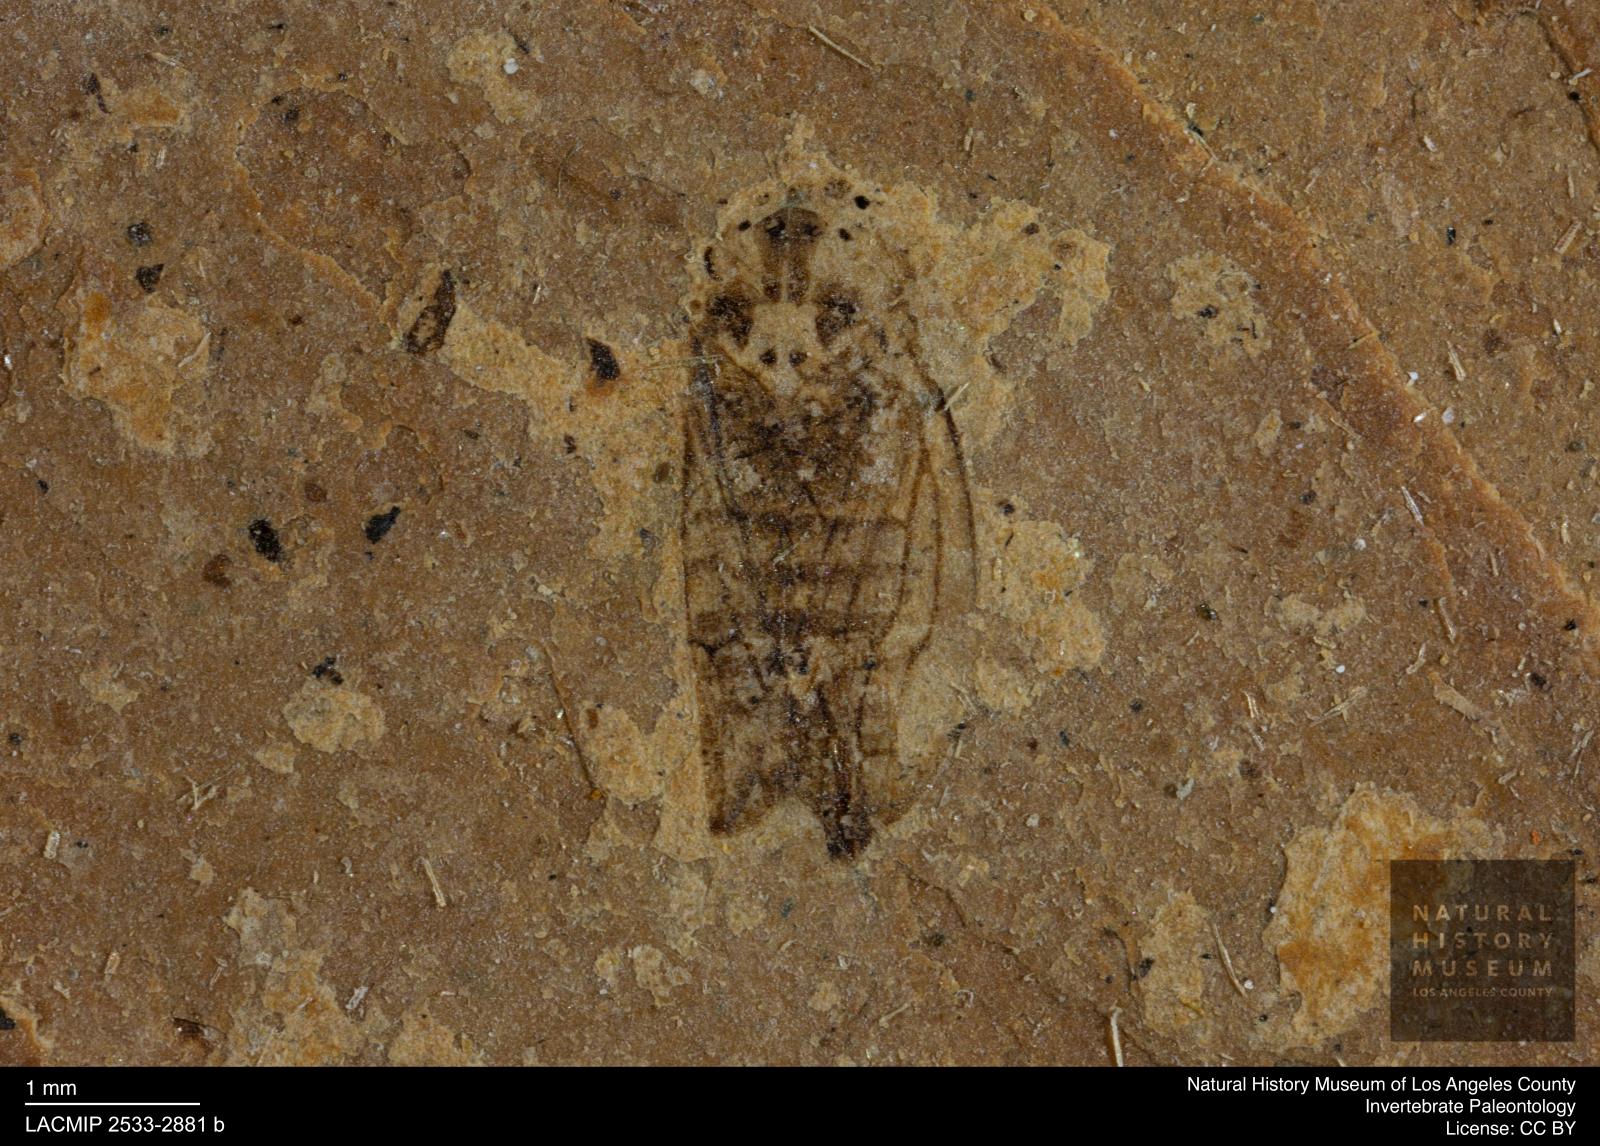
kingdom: Animalia
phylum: Arthropoda
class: Insecta
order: Hemiptera
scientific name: Hemiptera
